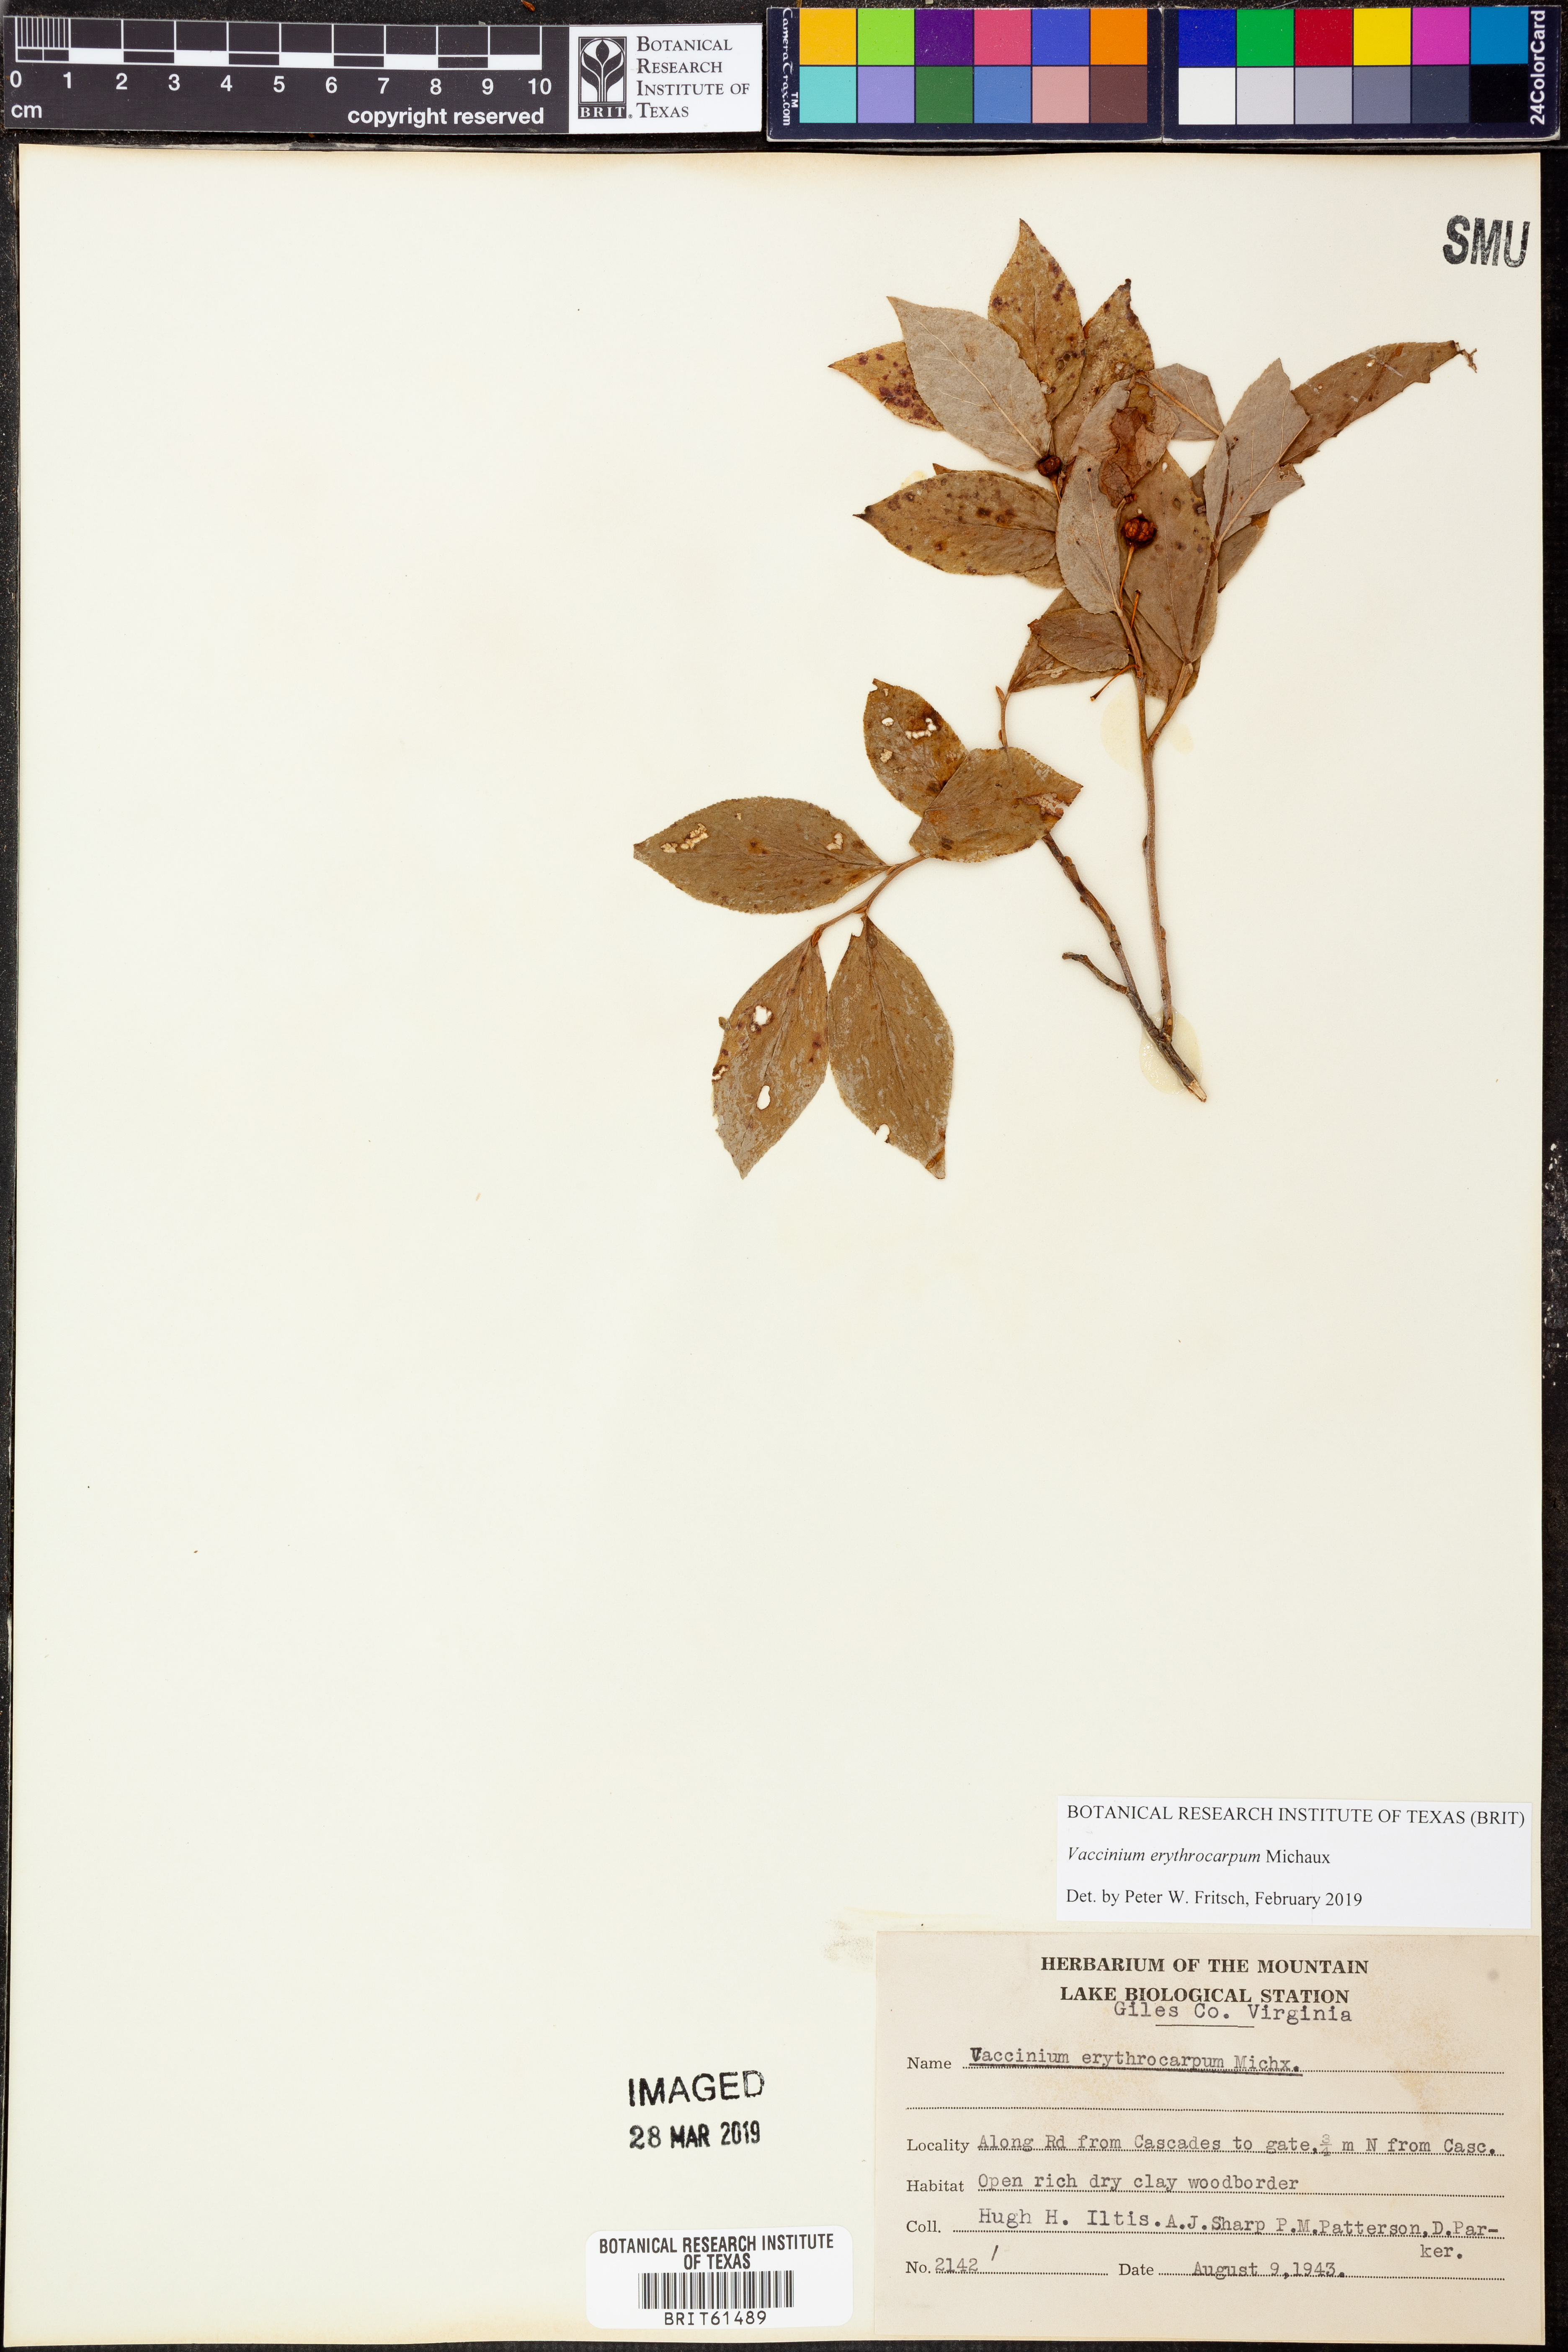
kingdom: Plantae
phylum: Tracheophyta
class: Magnoliopsida
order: Ericales
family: Ericaceae
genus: Vaccinium
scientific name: Vaccinium erythrocarpum
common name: Bearberry
